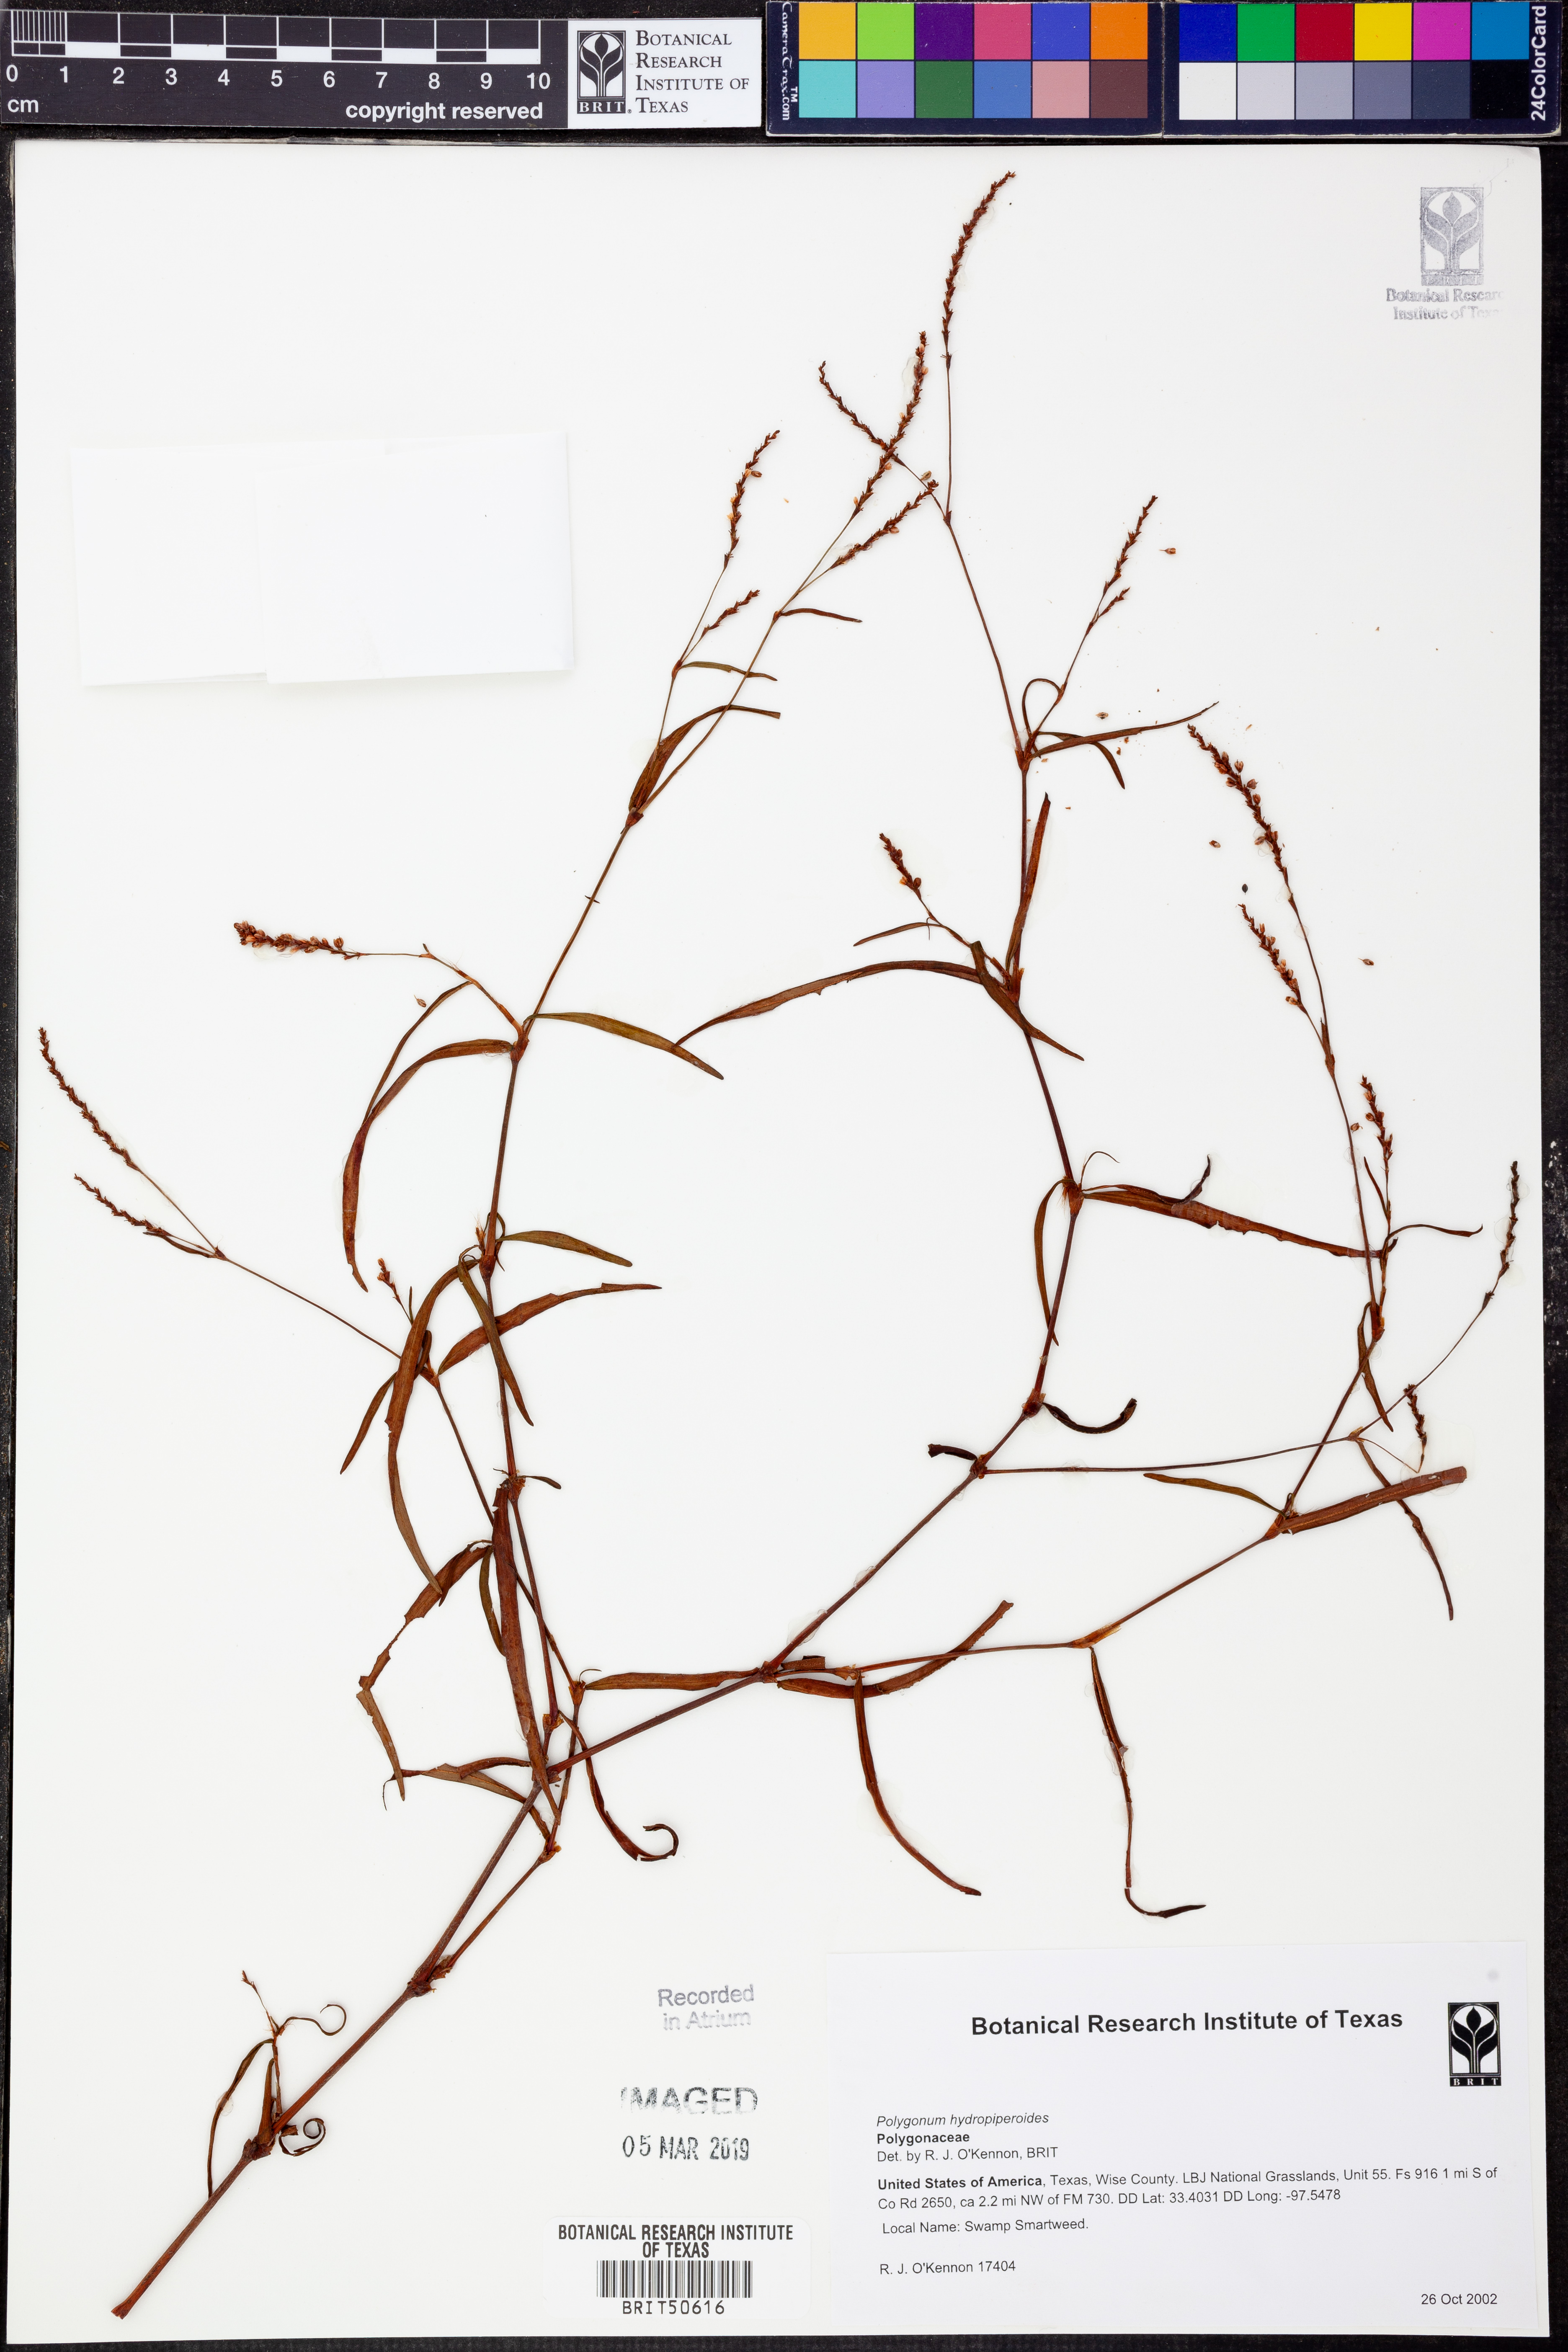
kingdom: Plantae
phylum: Tracheophyta
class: Magnoliopsida
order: Caryophyllales
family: Polygonaceae
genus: Persicaria
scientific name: Persicaria hydropiperoides
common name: Swamp smartweed
